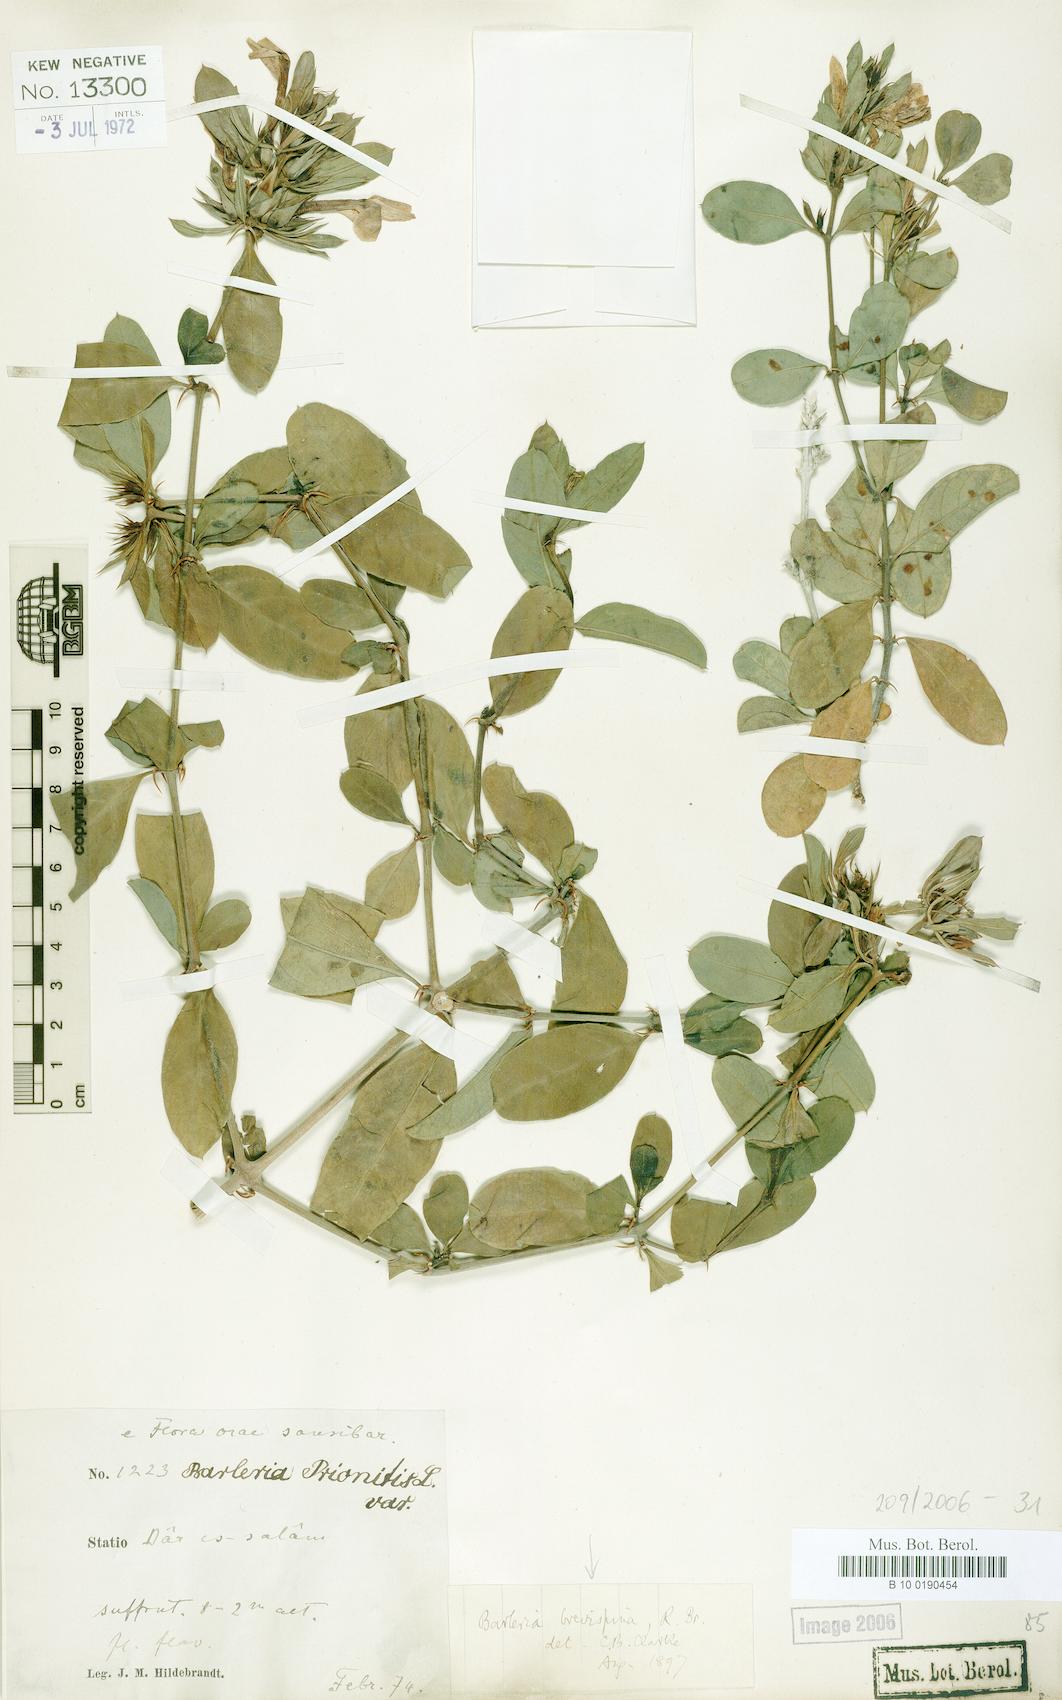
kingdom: Plantae
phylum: Tracheophyta
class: Magnoliopsida
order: Lamiales
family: Acanthaceae
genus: Barleria
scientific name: Barleria quadrispina
